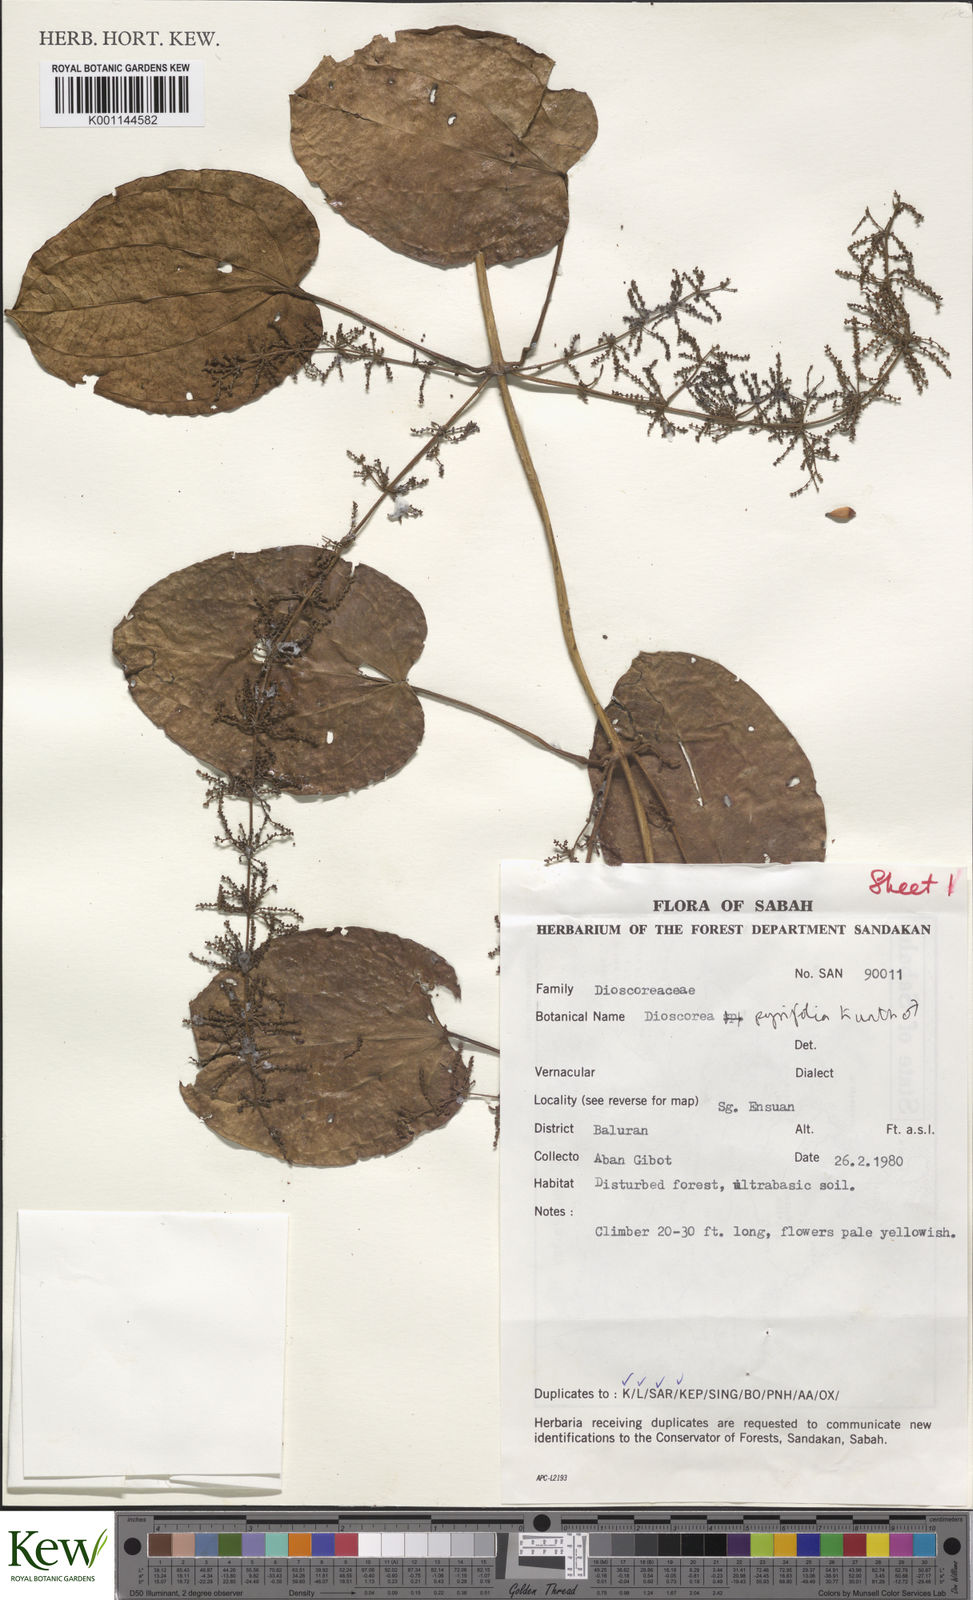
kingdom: Plantae
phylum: Tracheophyta
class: Liliopsida
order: Dioscoreales
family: Dioscoreaceae
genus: Dioscorea
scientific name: Dioscorea pyrifolia
